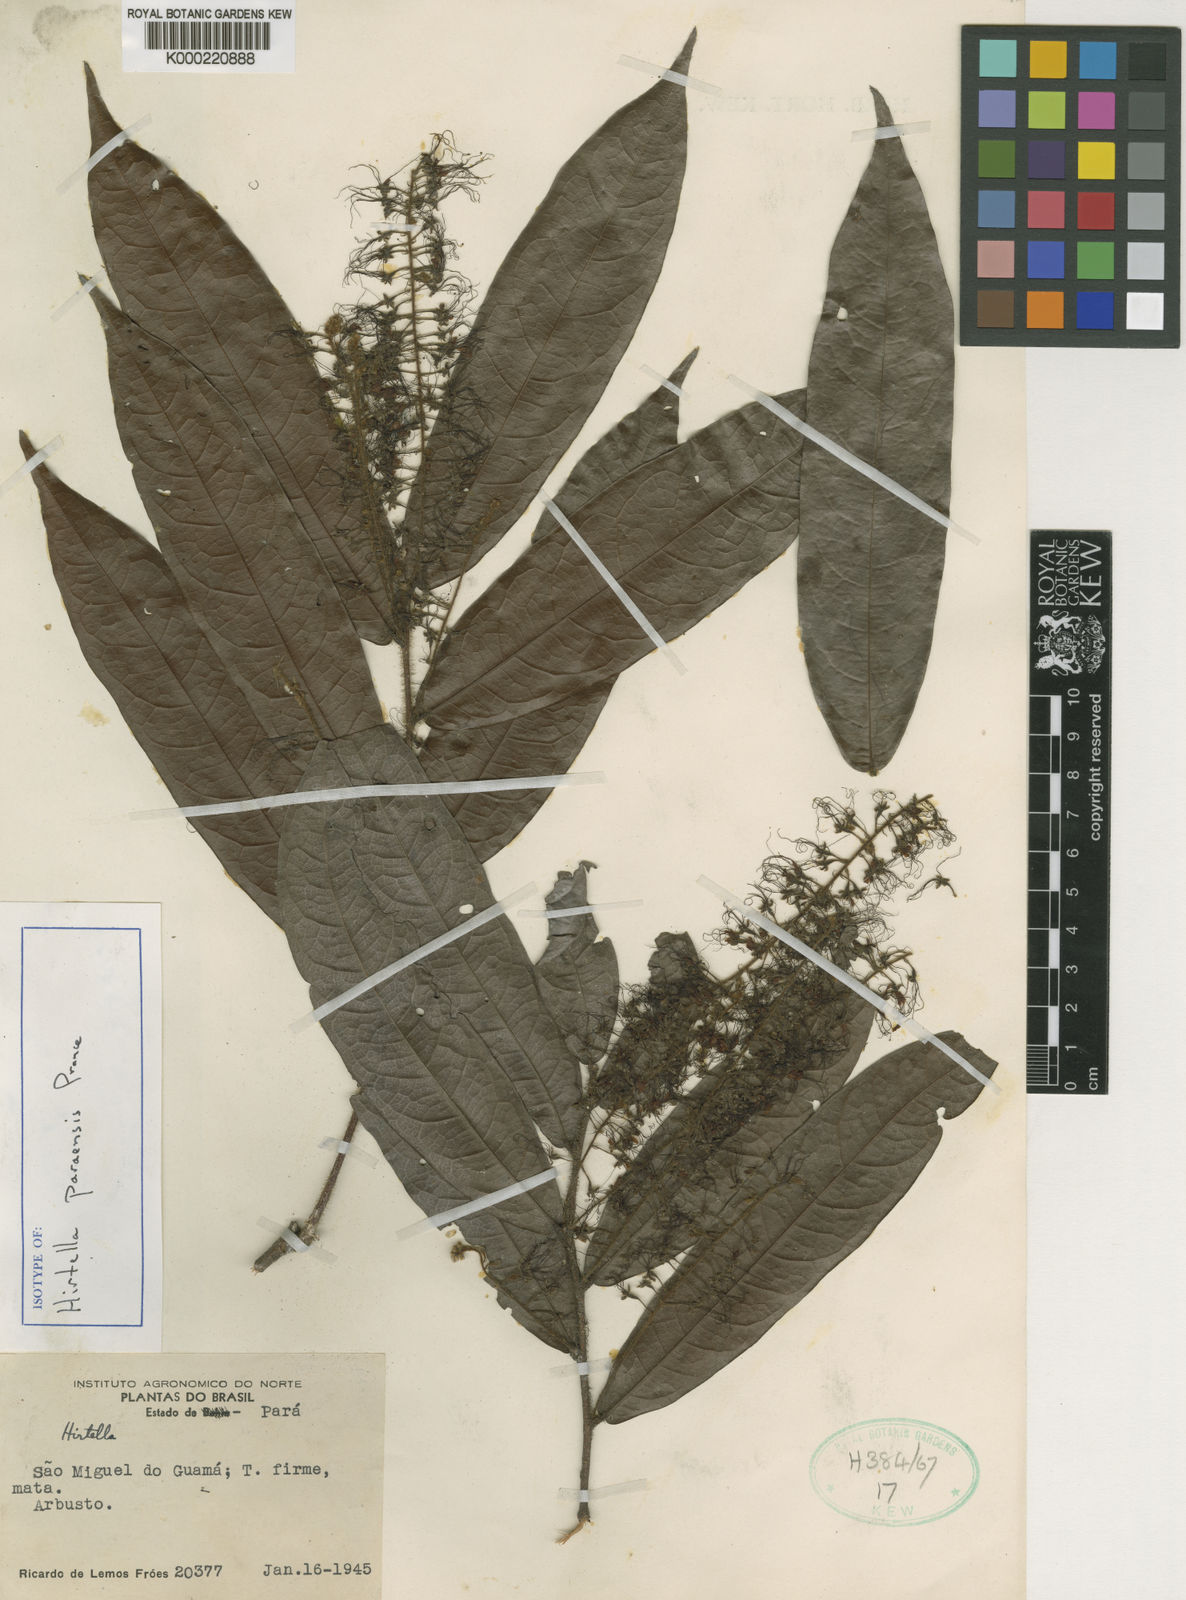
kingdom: Plantae
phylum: Tracheophyta
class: Magnoliopsida
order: Malpighiales
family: Chrysobalanaceae
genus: Hirtella
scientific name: Hirtella paraensis
